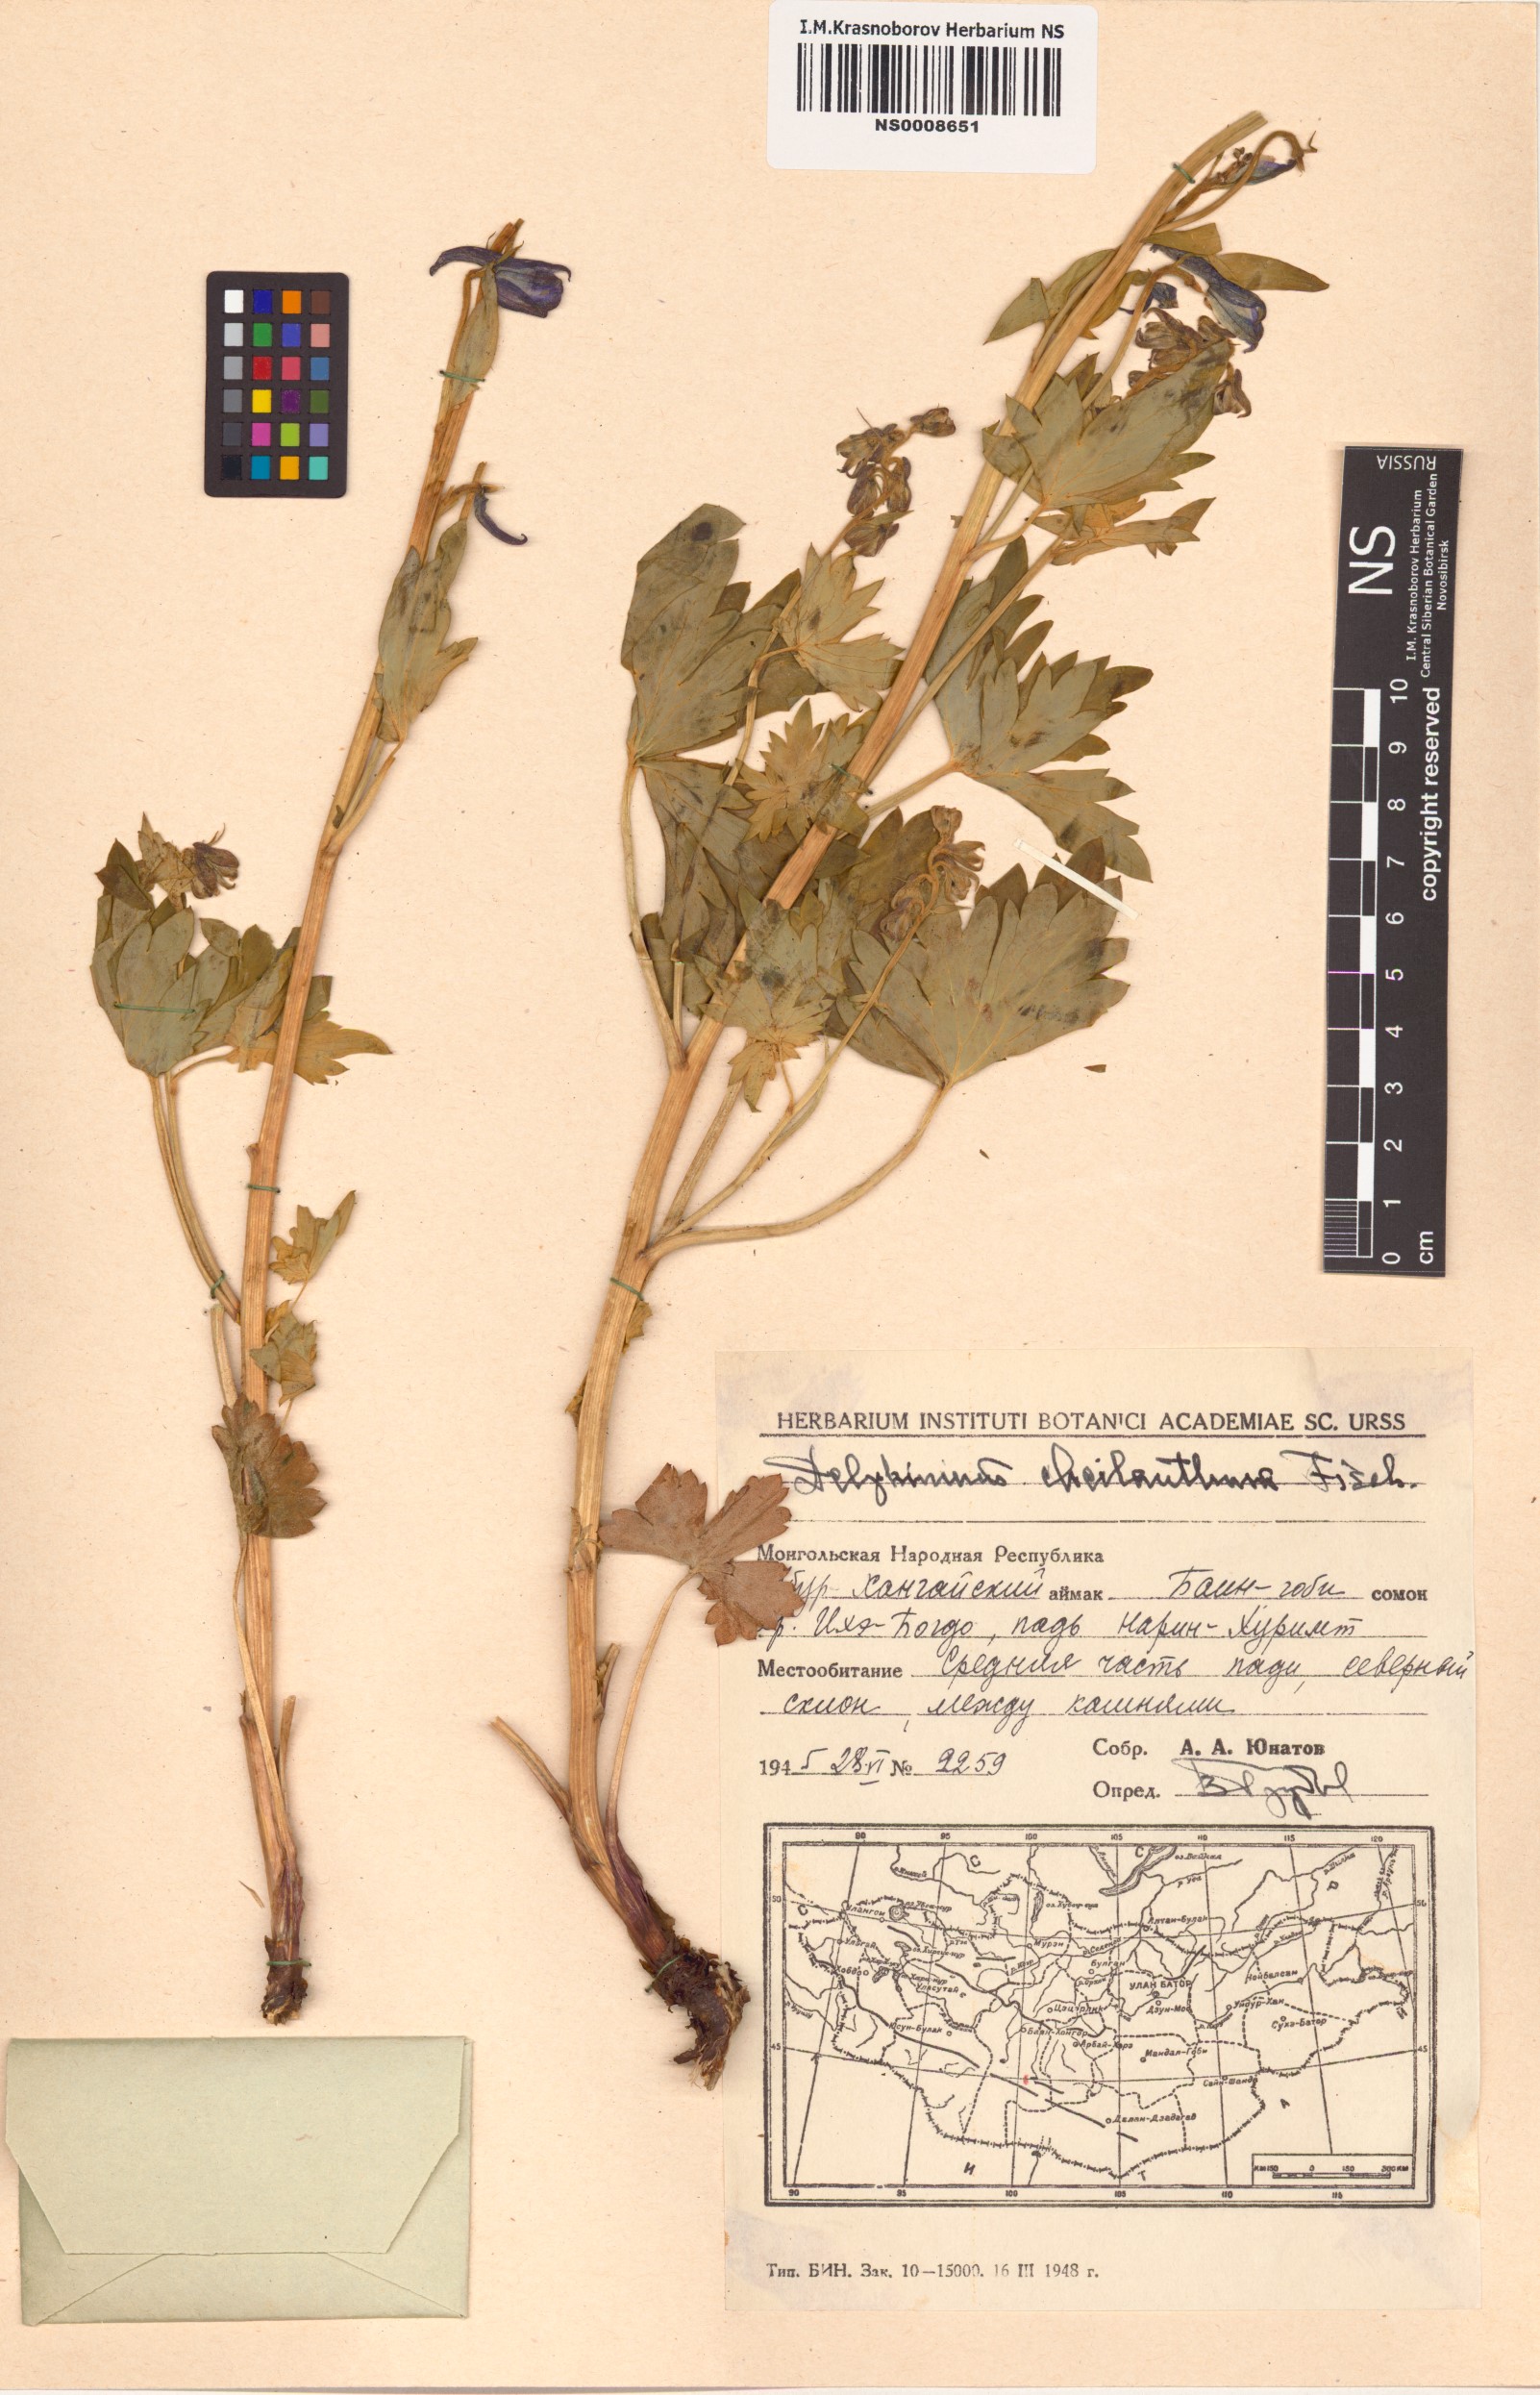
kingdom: Plantae
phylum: Tracheophyta
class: Magnoliopsida
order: Ranunculales
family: Ranunculaceae
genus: Delphinium
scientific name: Delphinium cheilanthum
